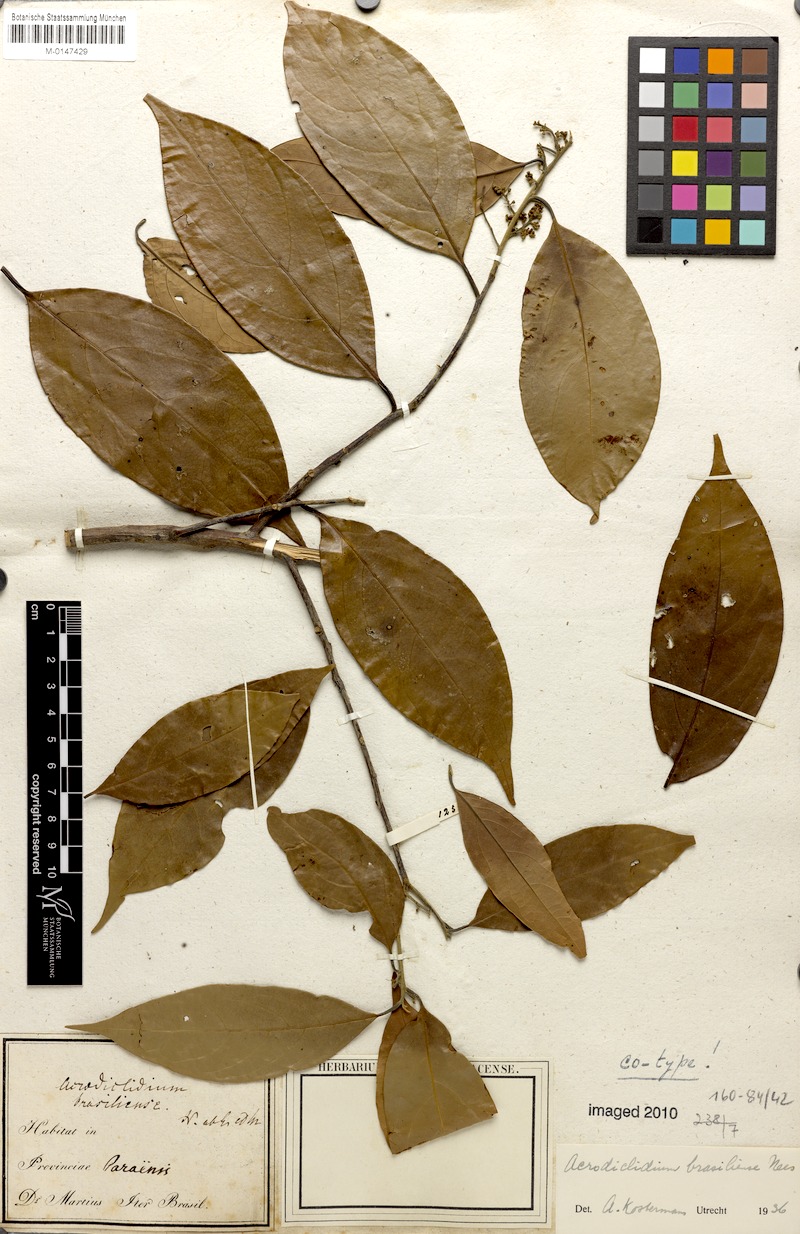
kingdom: Plantae
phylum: Tracheophyta
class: Magnoliopsida
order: Laurales
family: Lauraceae
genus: Licaria
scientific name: Licaria brasiliensis
